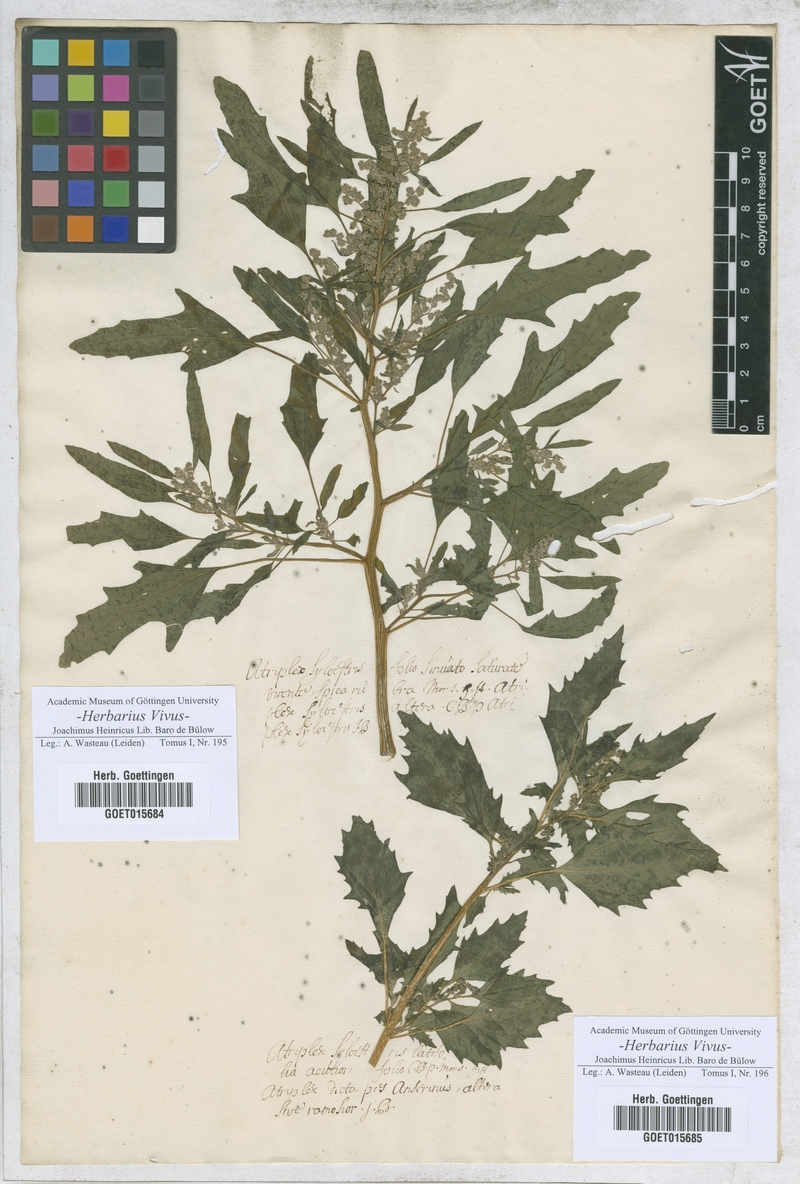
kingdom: Plantae
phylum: Tracheophyta
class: Magnoliopsida
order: Caryophyllales
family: Amaranthaceae
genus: Atriplex
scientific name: Atriplex
